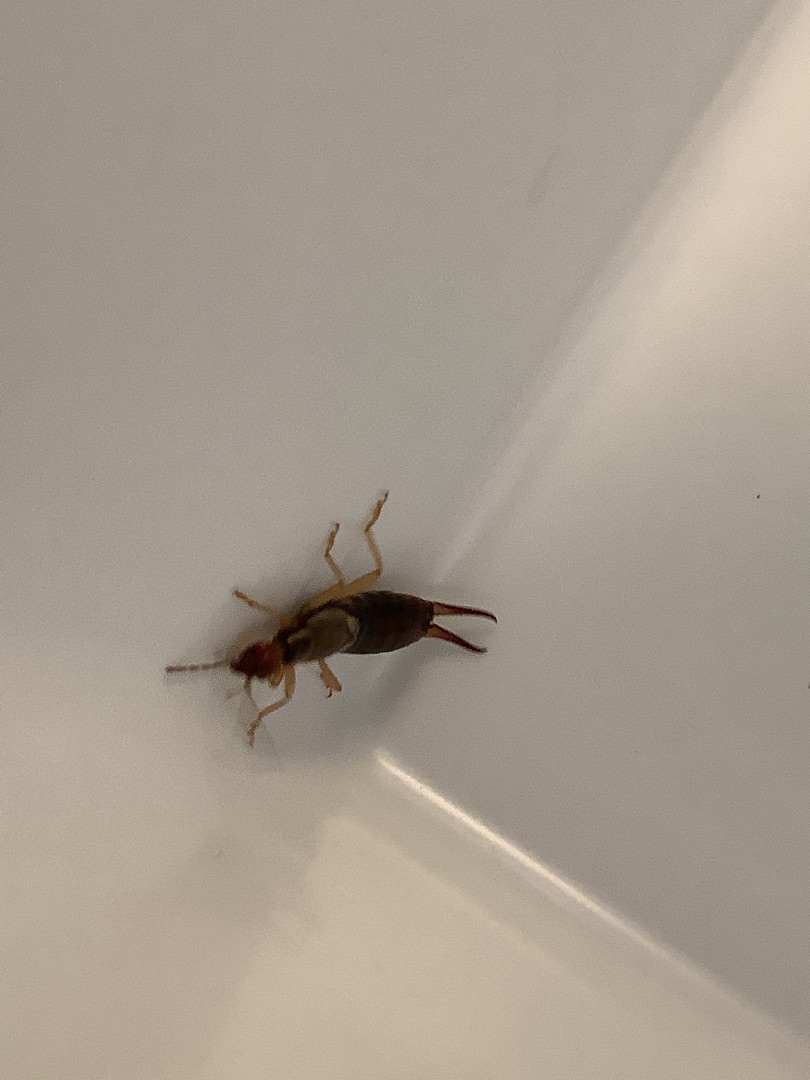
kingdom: Animalia
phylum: Arthropoda
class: Insecta
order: Dermaptera
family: Forficulidae
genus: Forficula
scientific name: Forficula auricularia
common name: Almindelig ørentvist
